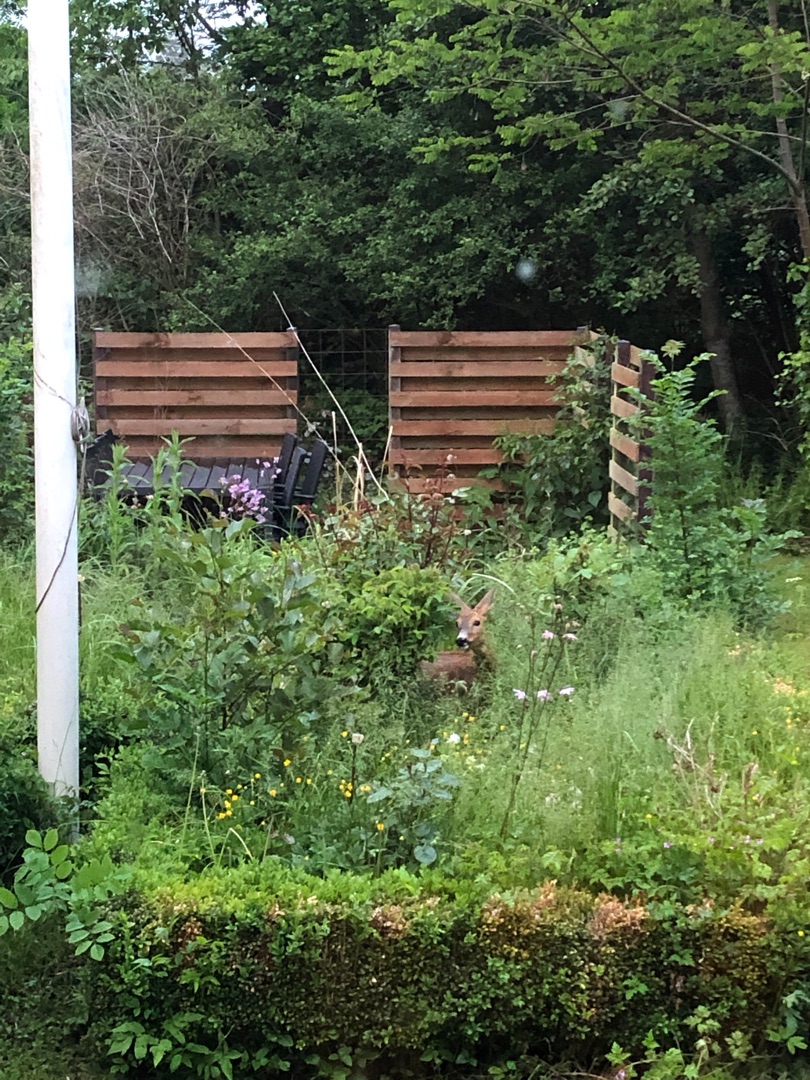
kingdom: Animalia
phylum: Chordata
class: Mammalia
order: Artiodactyla
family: Cervidae
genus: Capreolus
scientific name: Capreolus capreolus
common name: Rådyr
